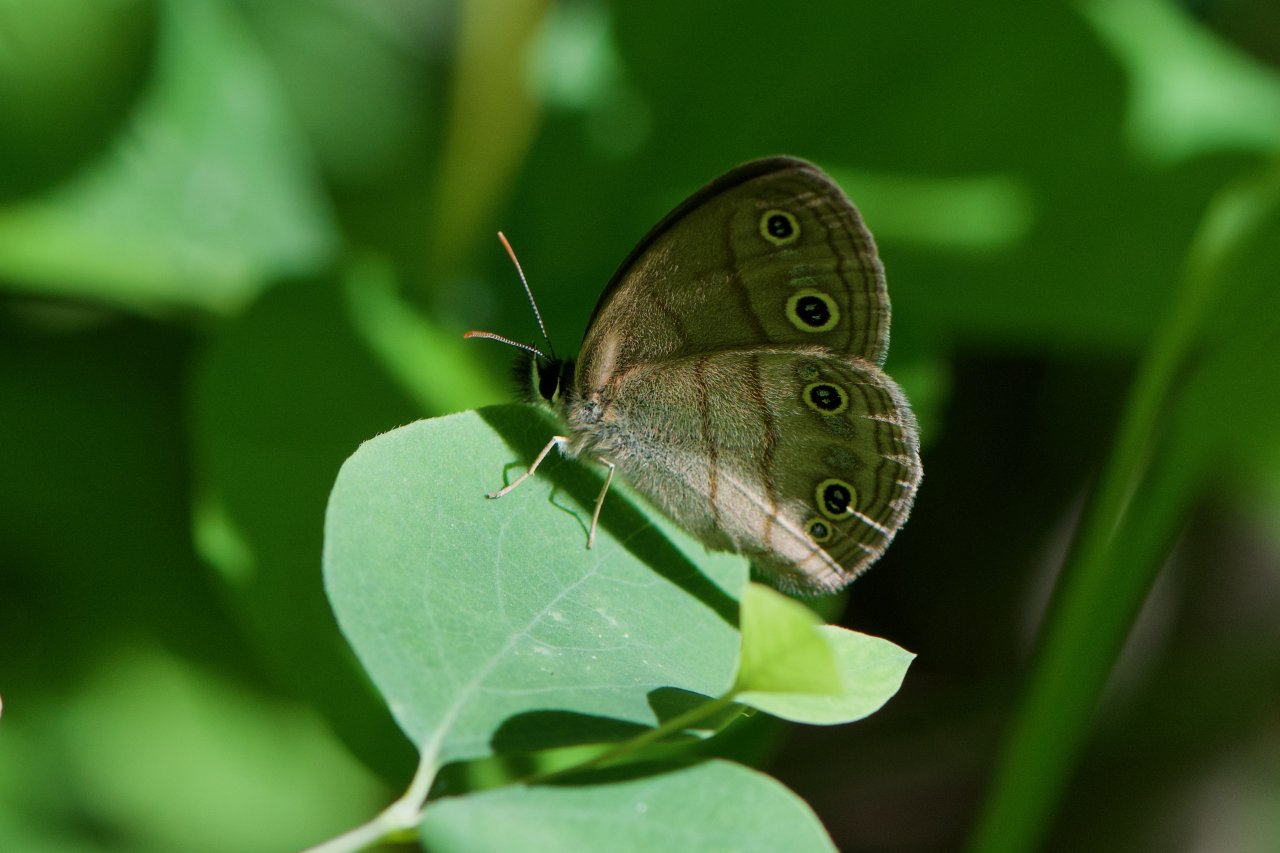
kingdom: Animalia
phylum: Arthropoda
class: Insecta
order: Lepidoptera
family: Nymphalidae
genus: Euptychia
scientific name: Euptychia cymela
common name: Little Wood Satyr
